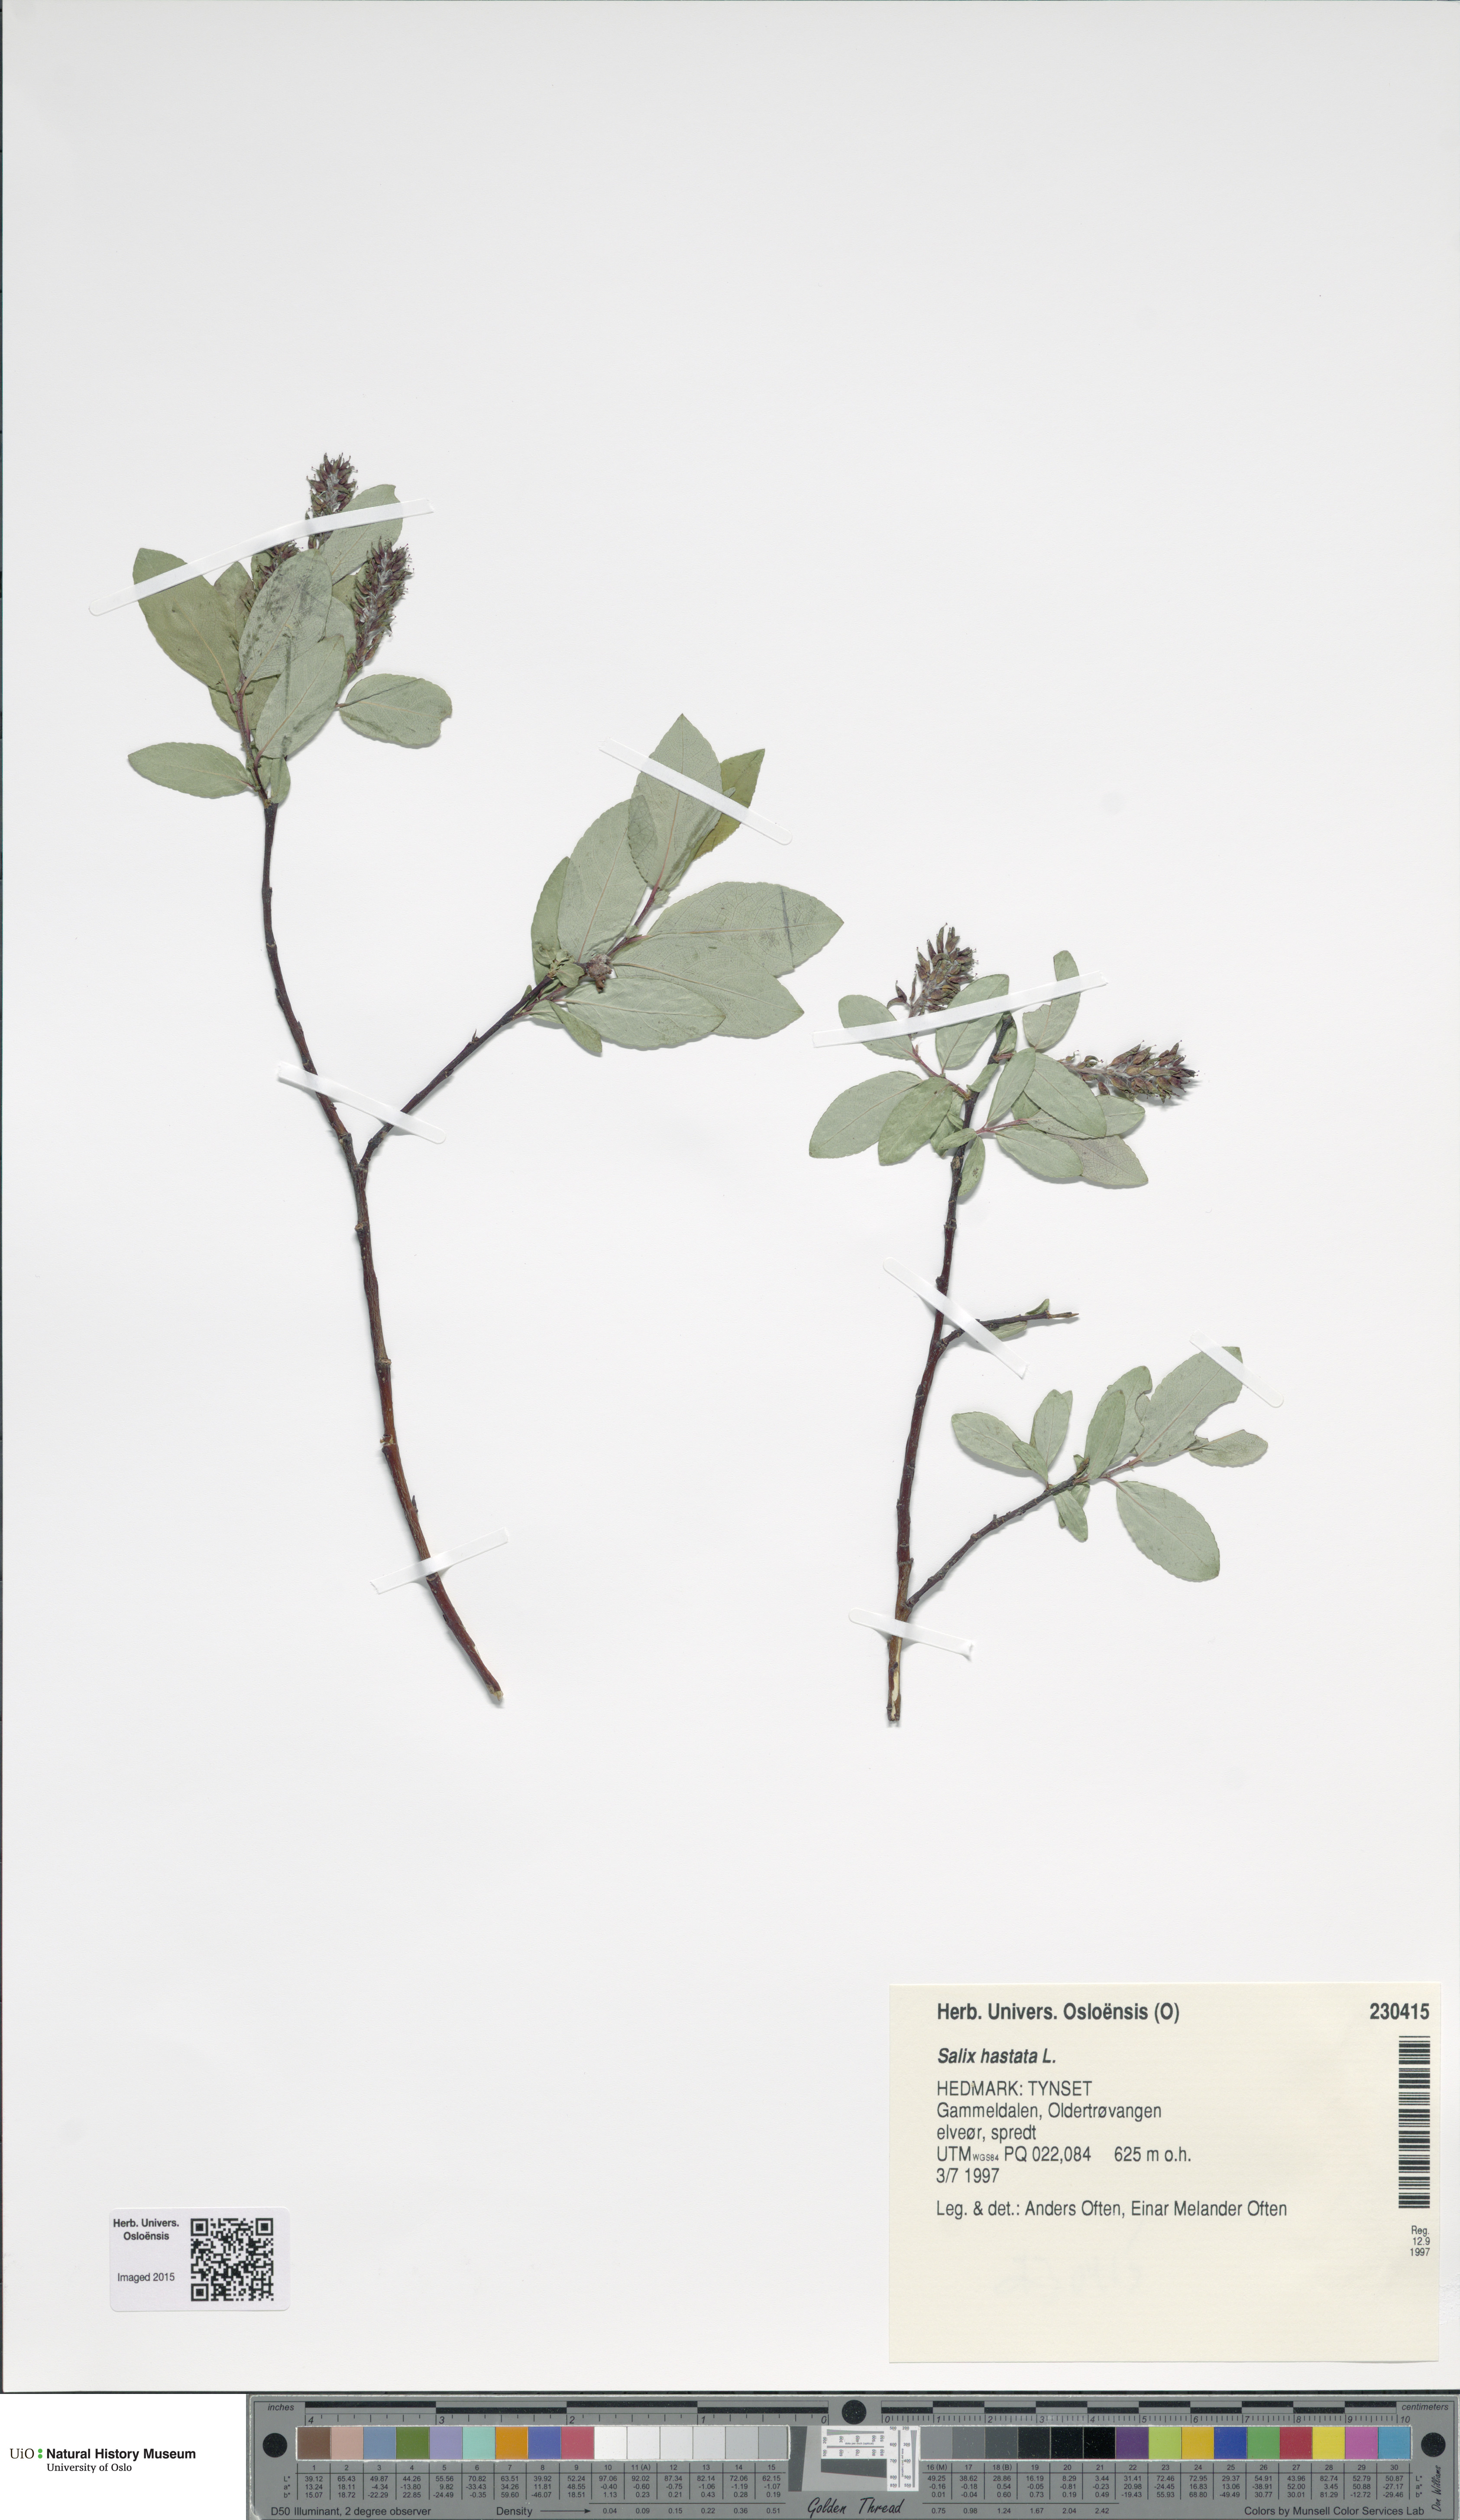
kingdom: Plantae
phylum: Tracheophyta
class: Magnoliopsida
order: Malpighiales
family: Salicaceae
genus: Salix
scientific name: Salix hastata
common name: Halberd willow
